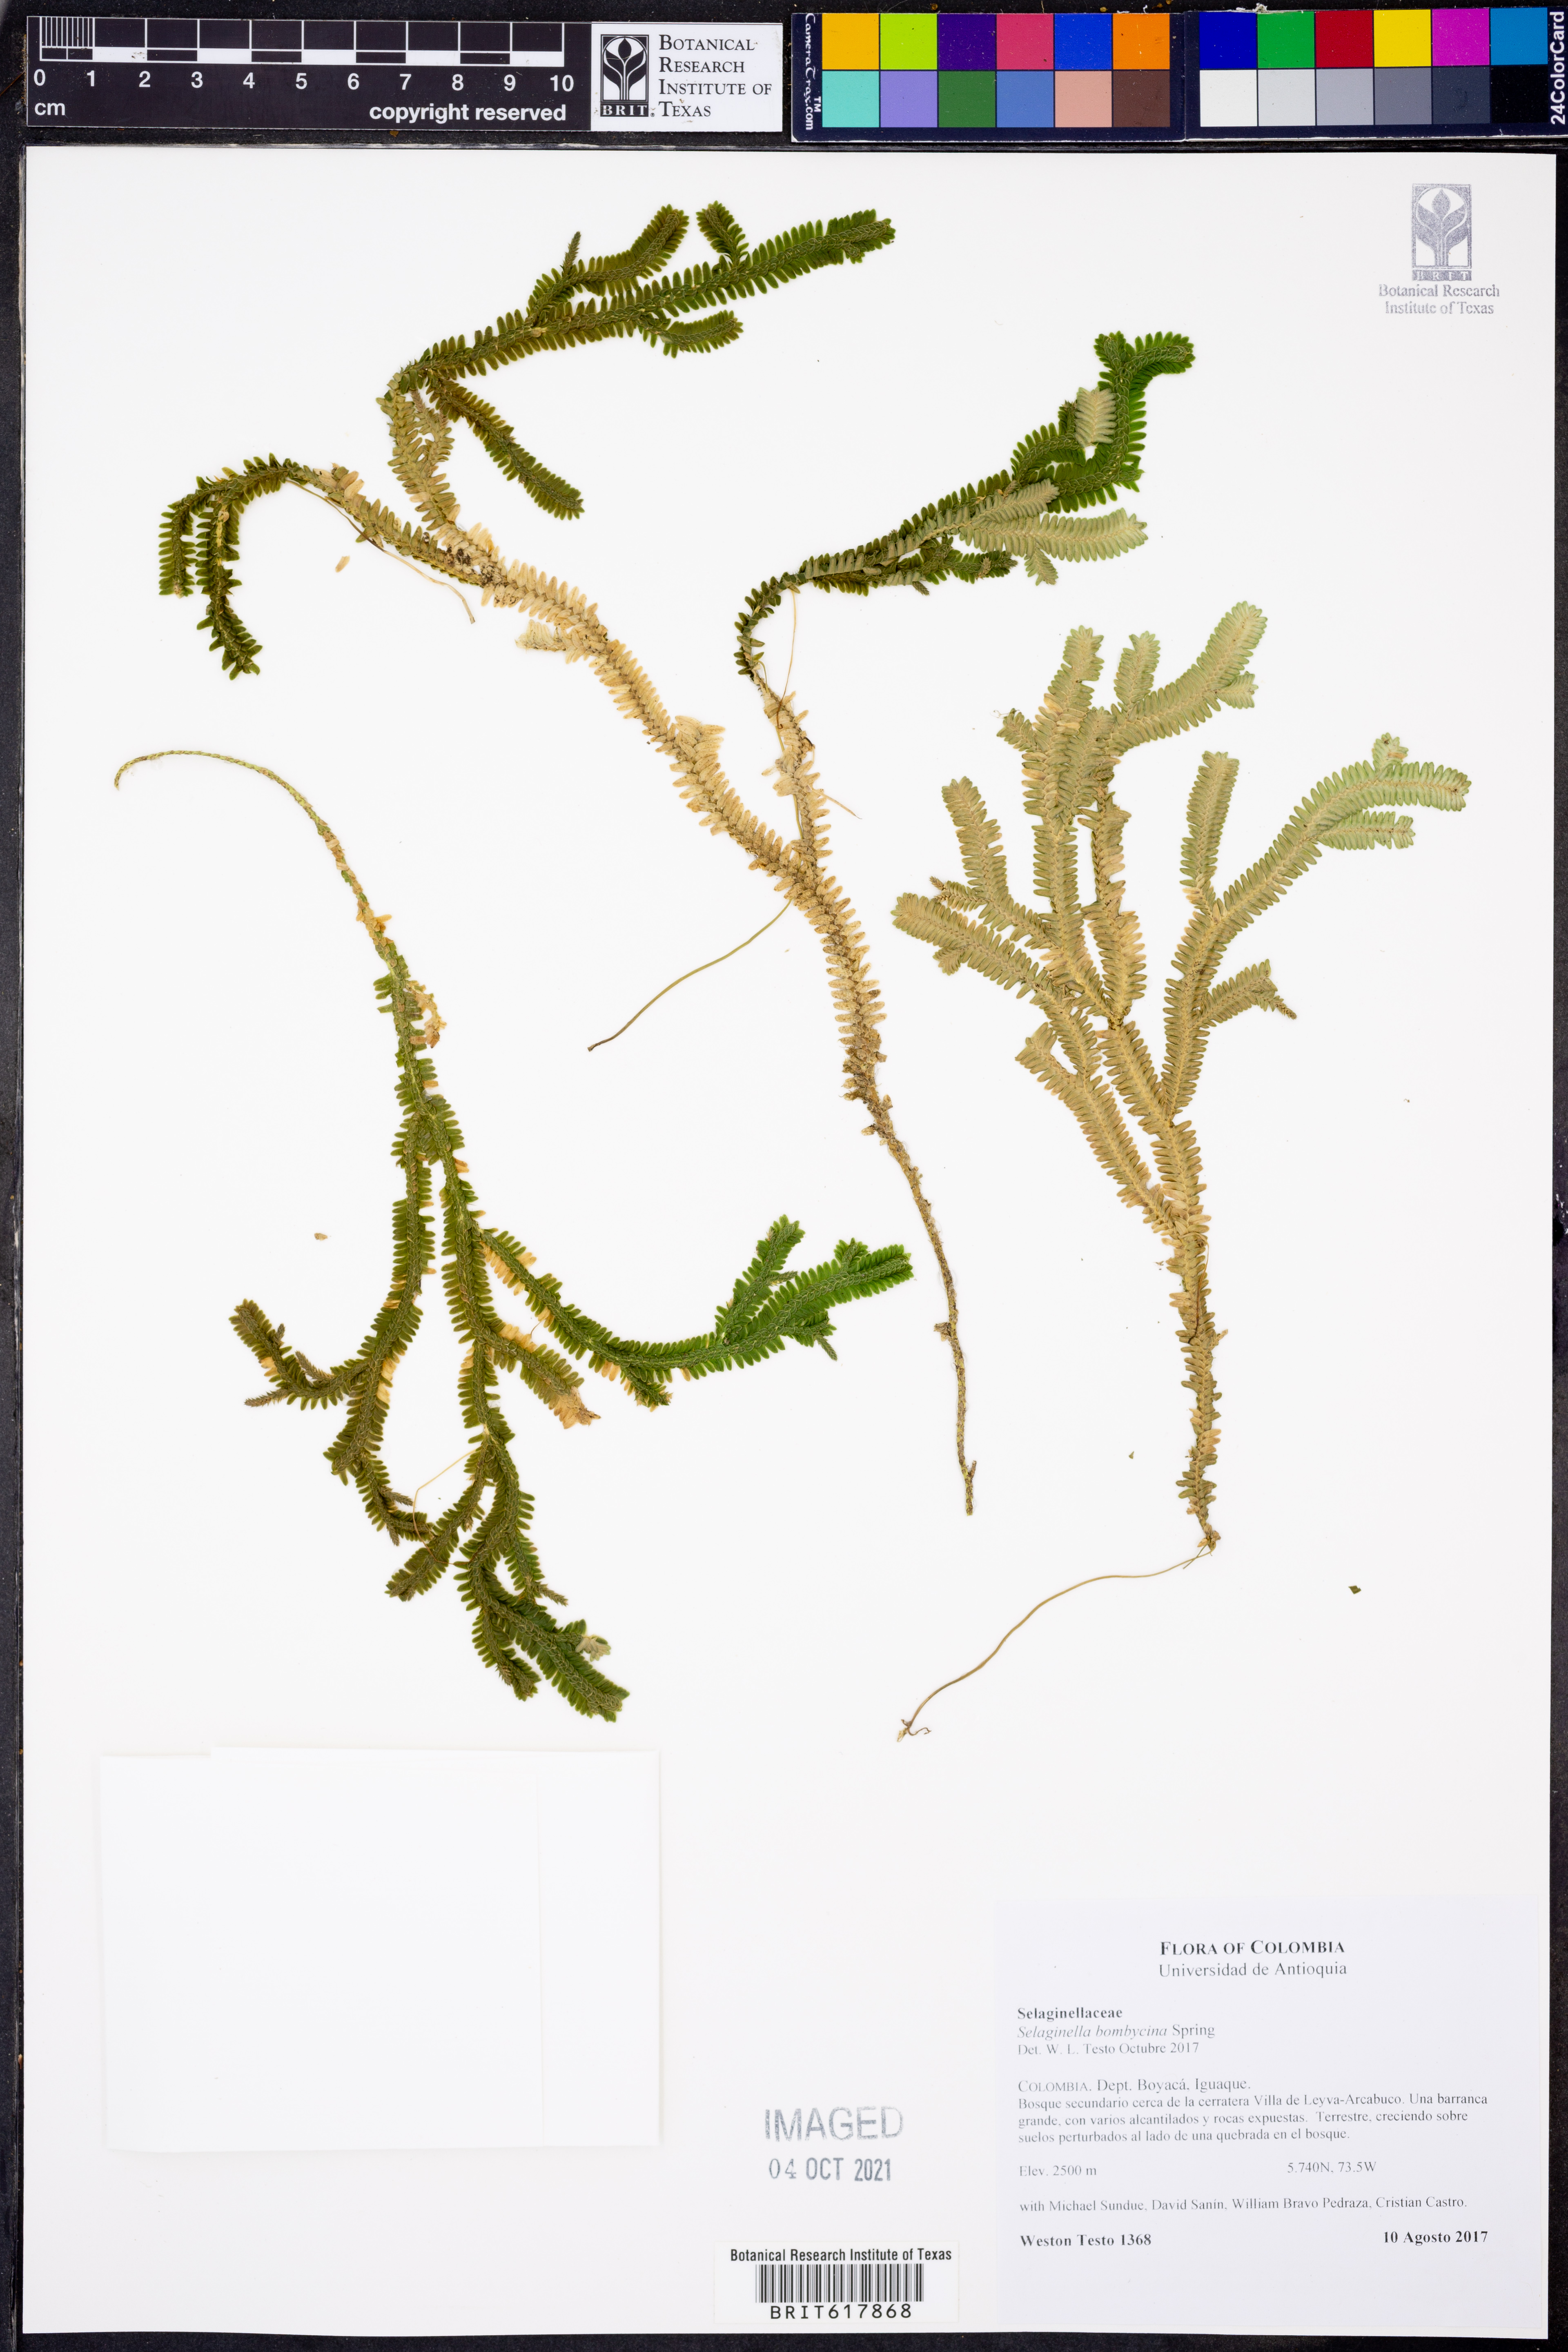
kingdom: Plantae
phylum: Tracheophyta
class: Lycopodiopsida
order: Selaginellales
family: Selaginellaceae
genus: Selaginella
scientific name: Selaginella
